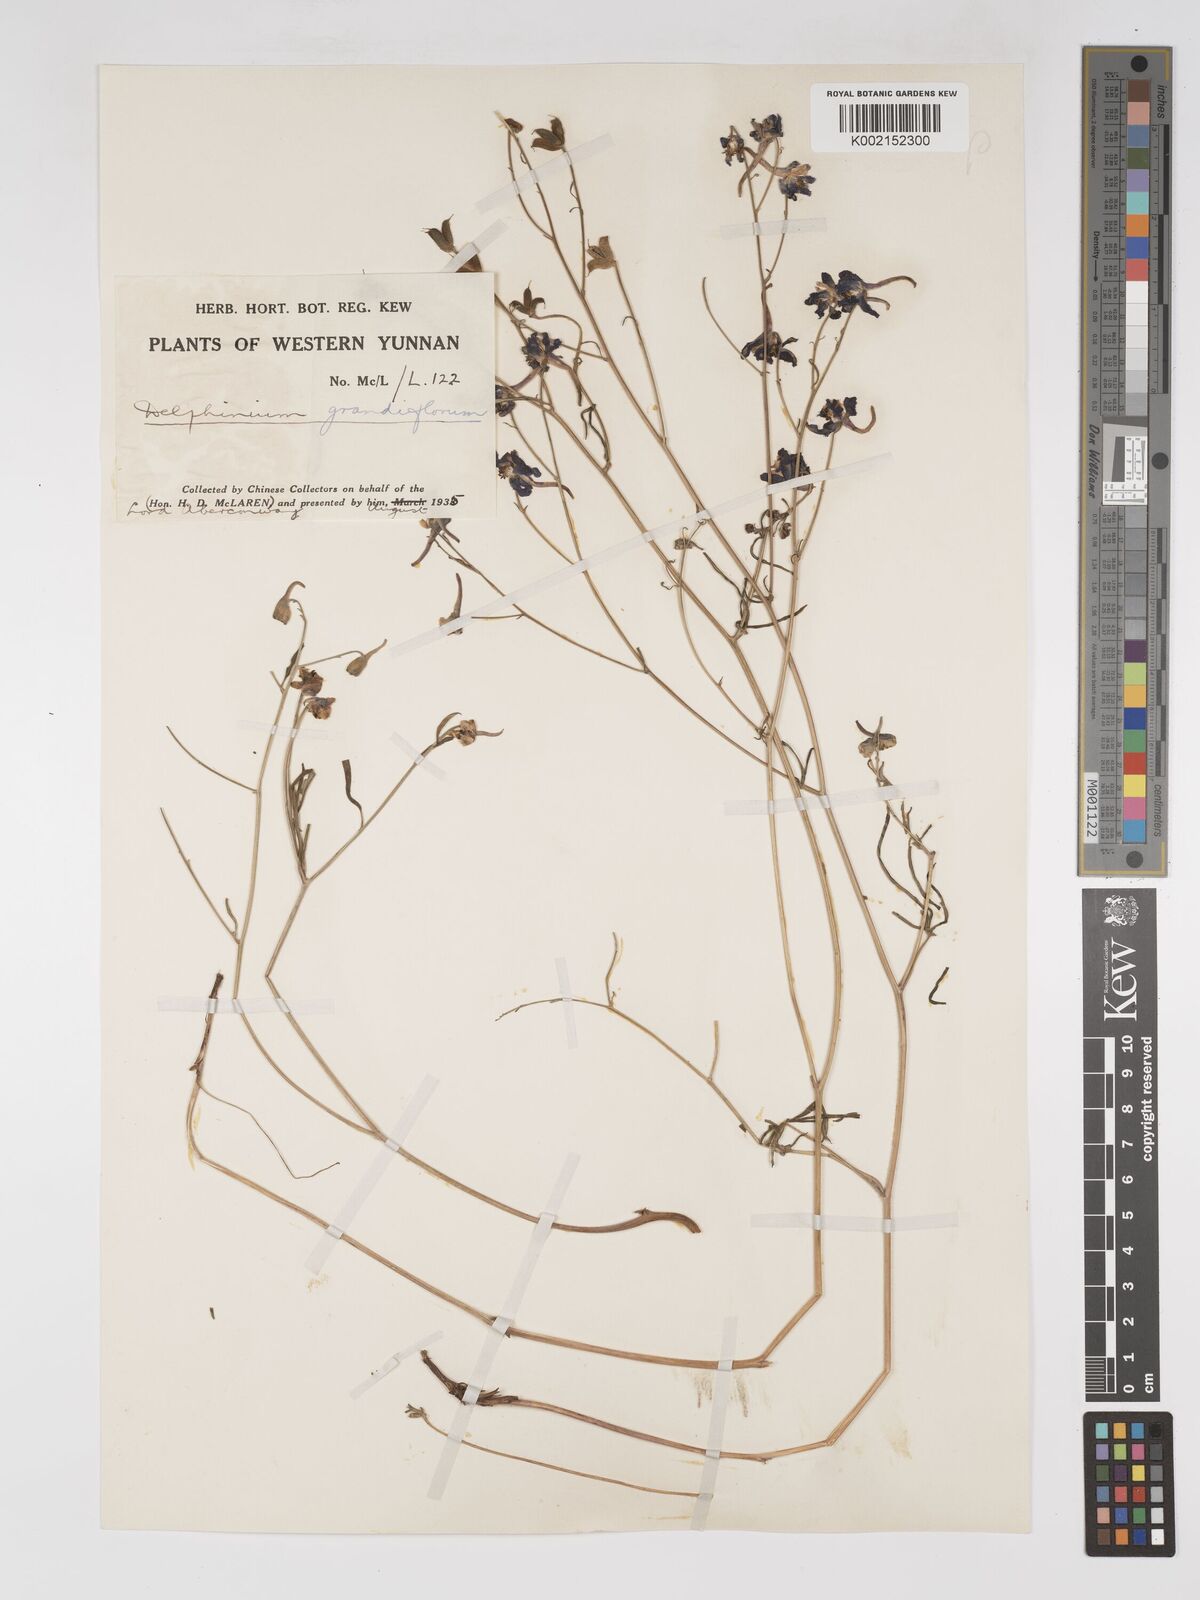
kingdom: Plantae
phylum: Tracheophyta
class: Magnoliopsida
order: Ranunculales
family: Ranunculaceae
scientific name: Ranunculaceae
